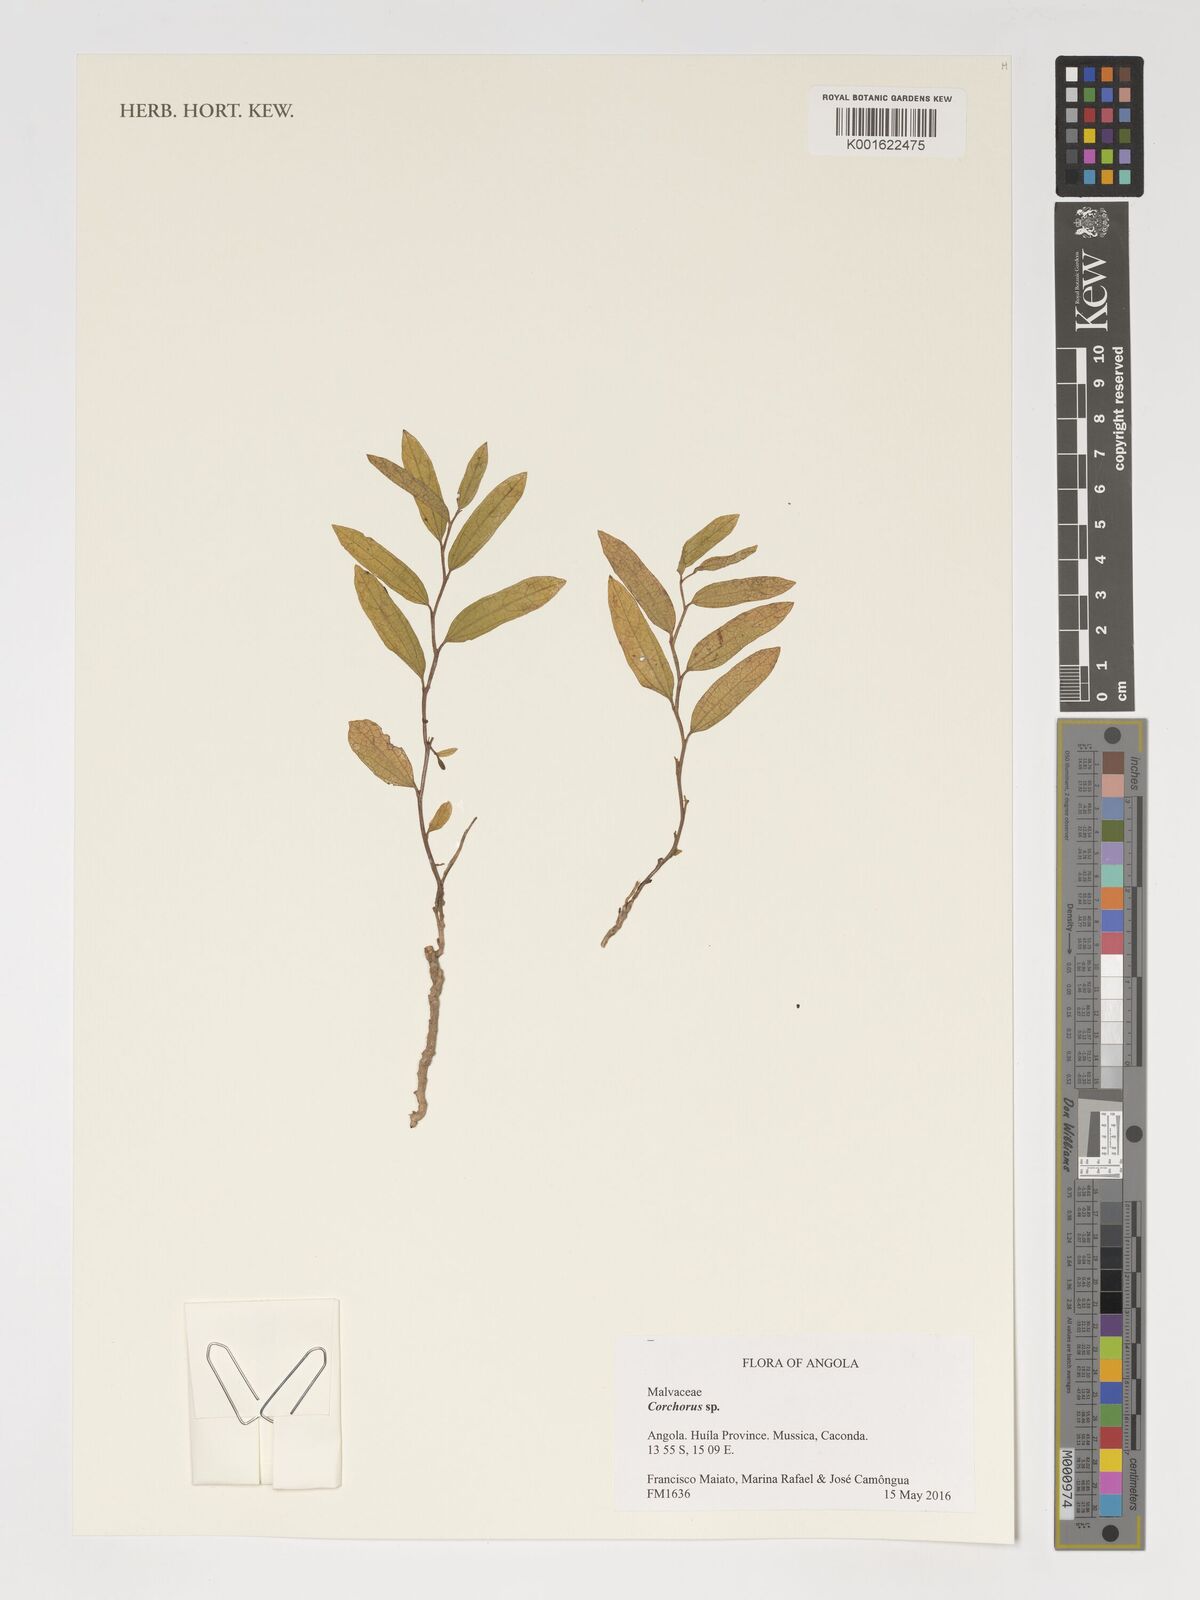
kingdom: Plantae
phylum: Tracheophyta
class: Magnoliopsida
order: Malvales
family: Malvaceae
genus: Corchorus
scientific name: Corchorus
